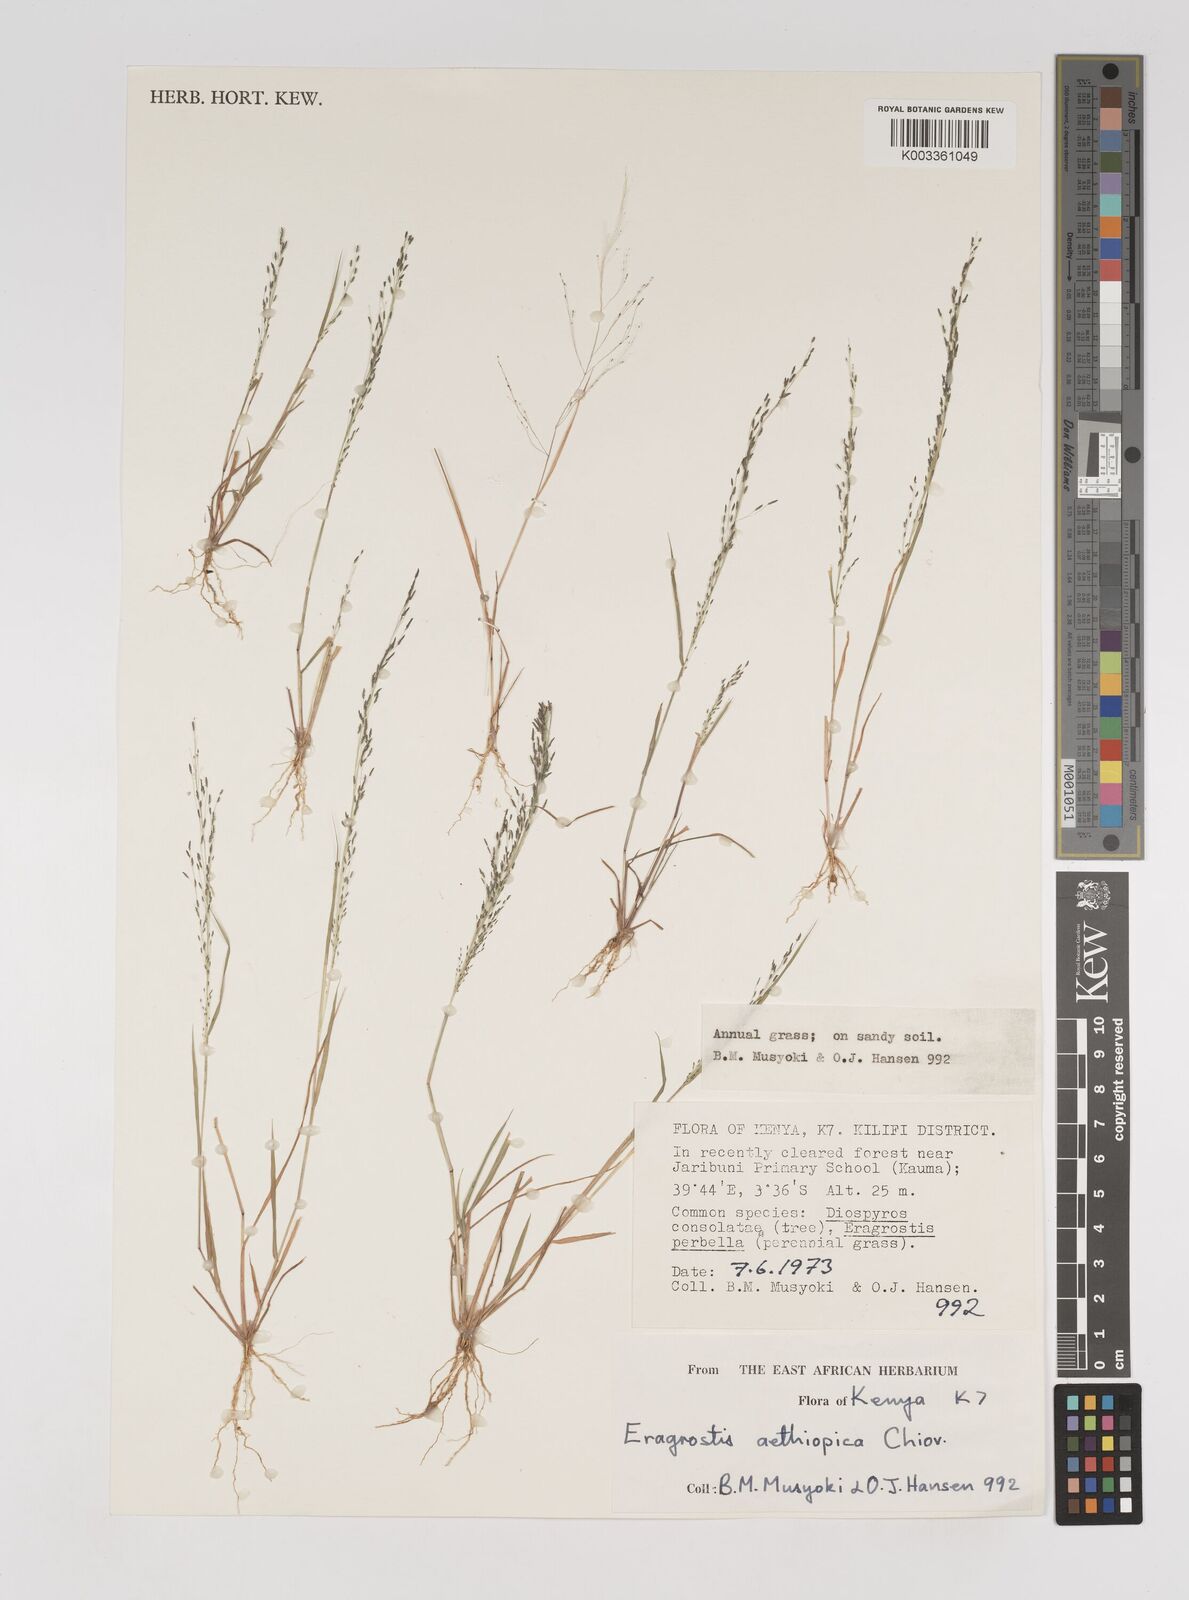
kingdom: Plantae
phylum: Tracheophyta
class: Liliopsida
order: Poales
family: Poaceae
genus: Eragrostis
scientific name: Eragrostis aethiopica
